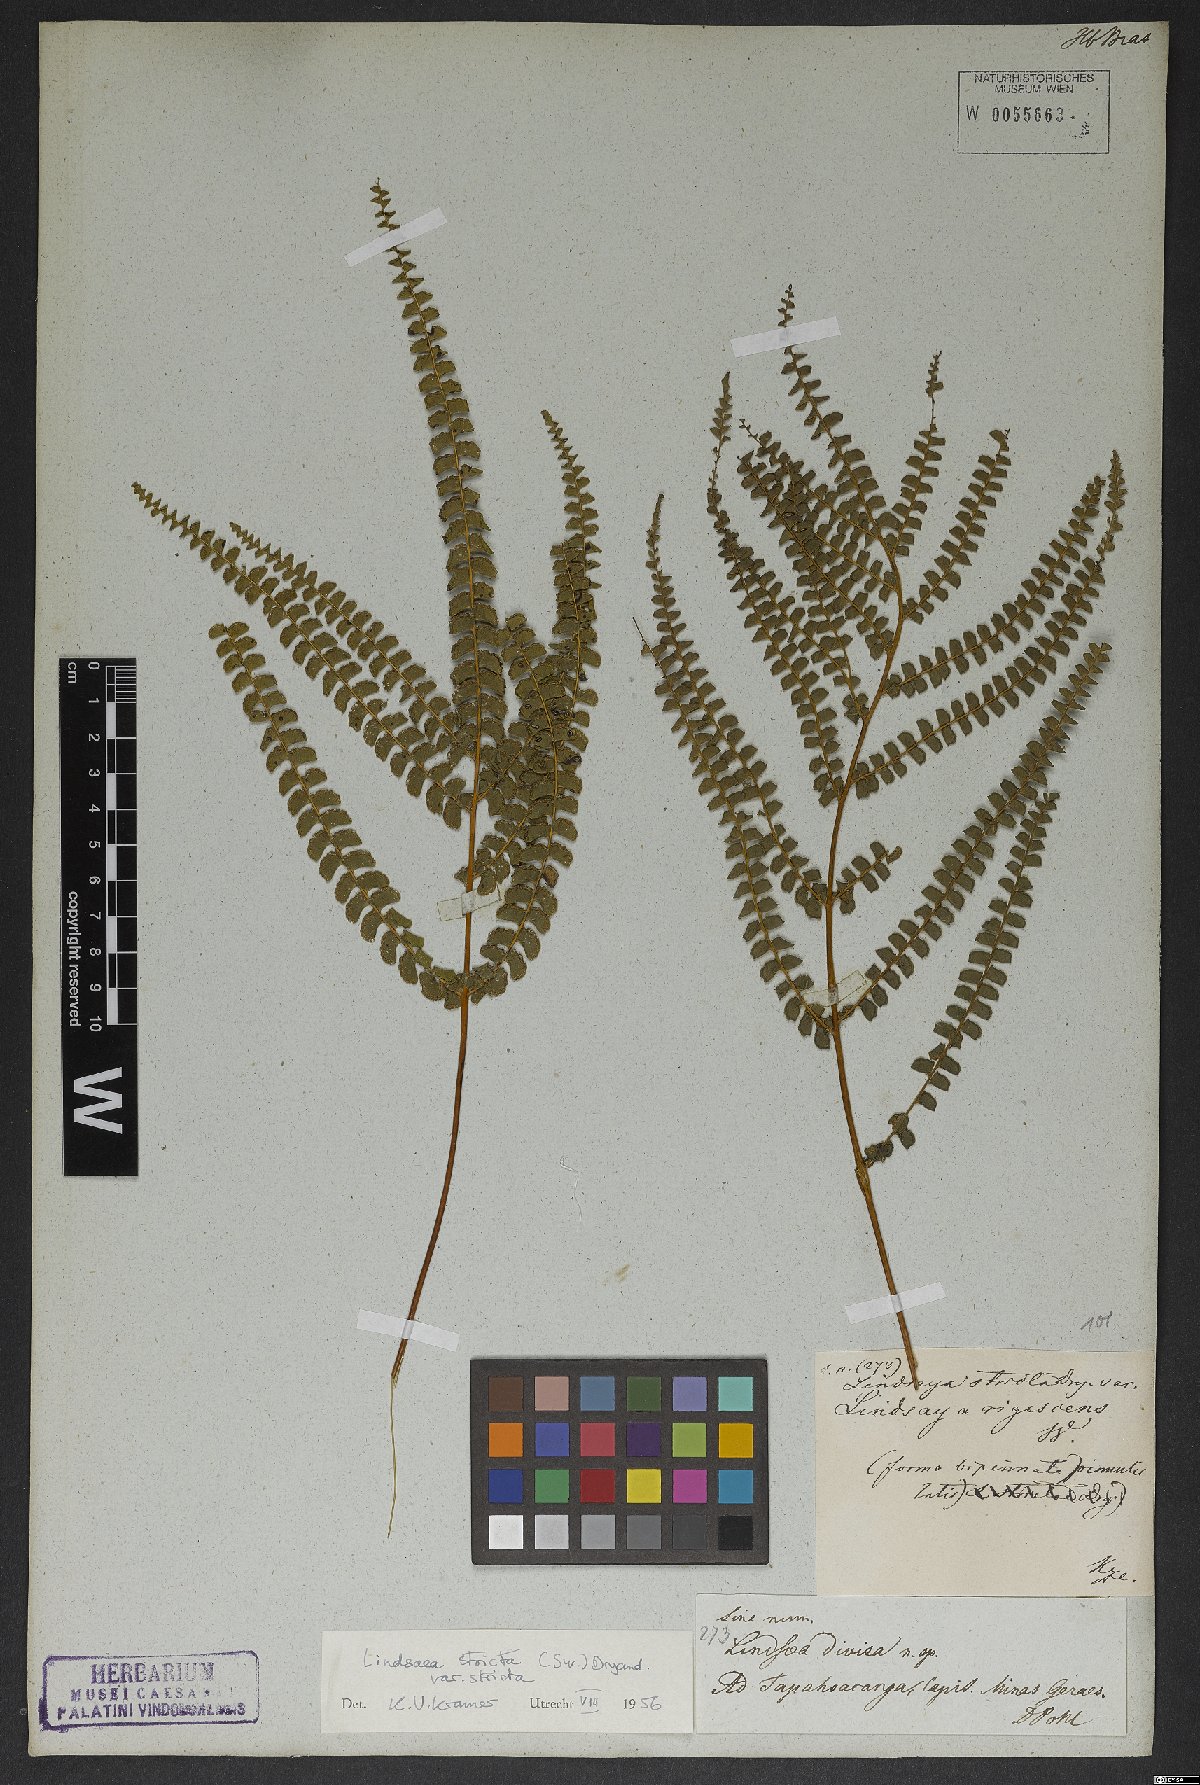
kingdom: Plantae
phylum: Tracheophyta
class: Polypodiopsida
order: Polypodiales
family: Lindsaeaceae
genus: Lindsaea
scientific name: Lindsaea stricta
